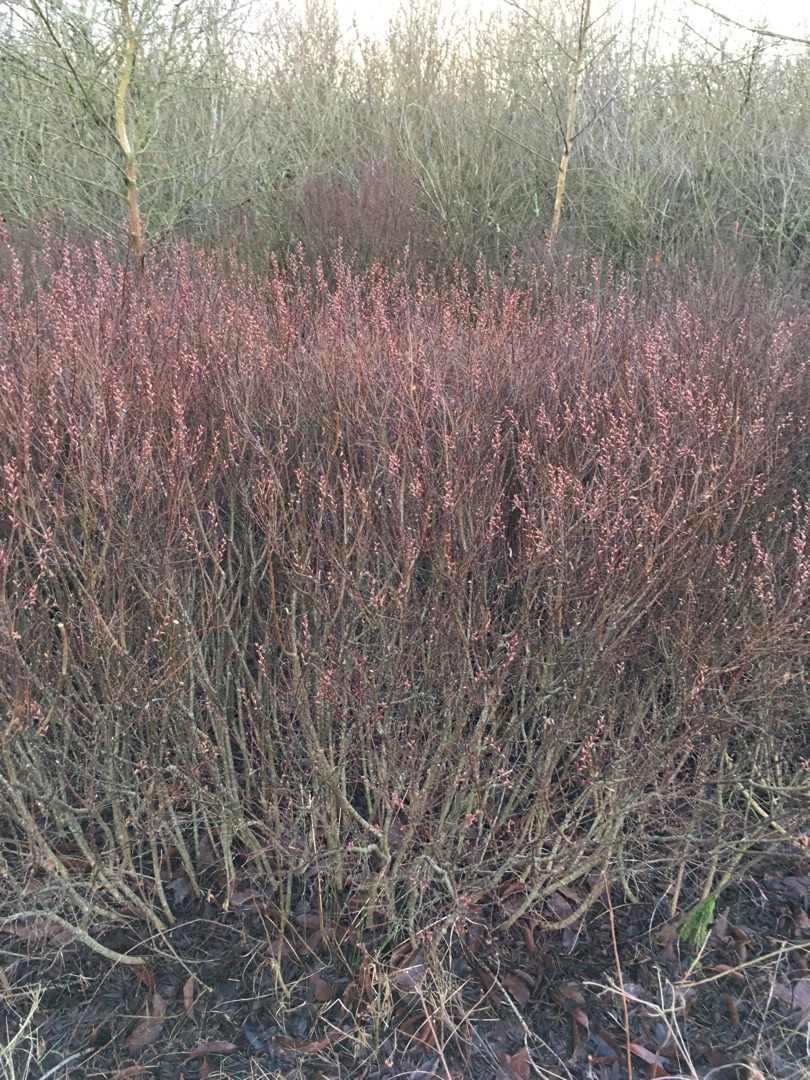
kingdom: Plantae
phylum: Tracheophyta
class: Magnoliopsida
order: Fagales
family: Myricaceae
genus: Myrica
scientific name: Myrica gale
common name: Pors
